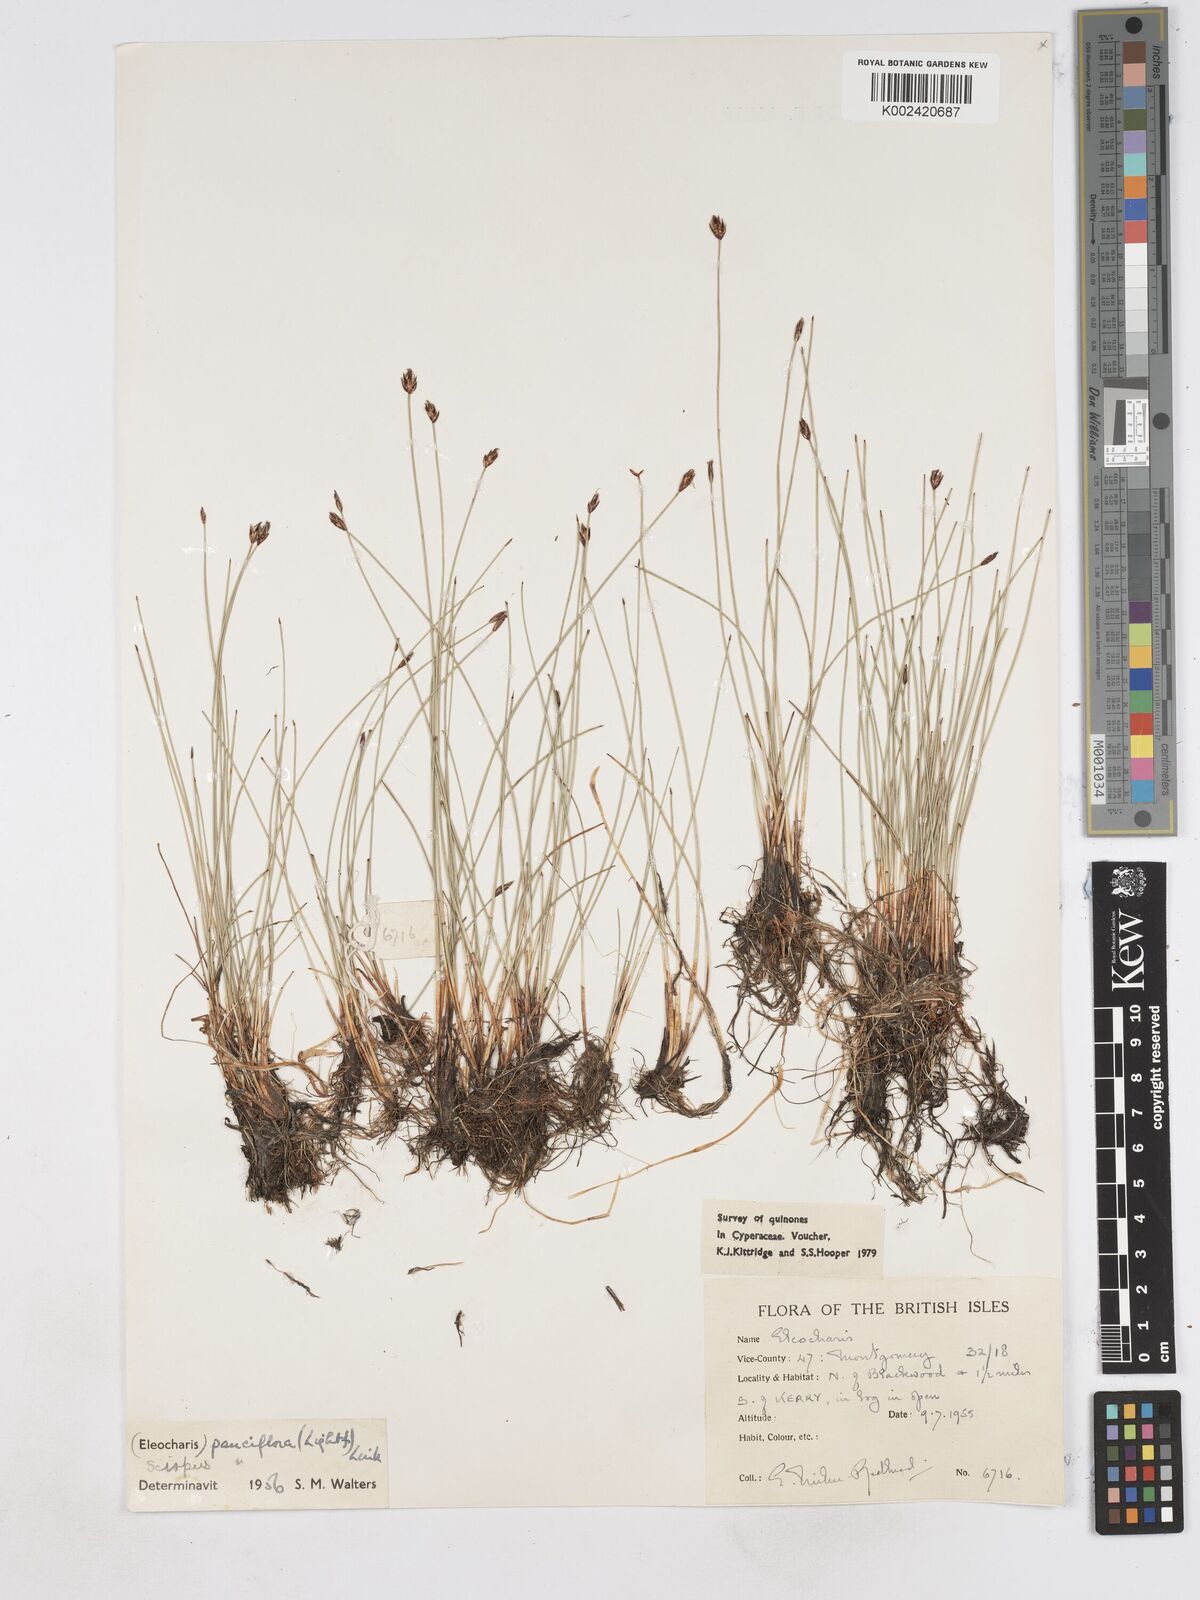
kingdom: Plantae
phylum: Tracheophyta
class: Liliopsida
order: Poales
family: Cyperaceae
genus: Eleocharis
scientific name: Eleocharis quinqueflora
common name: Few-flowered spike-rush
